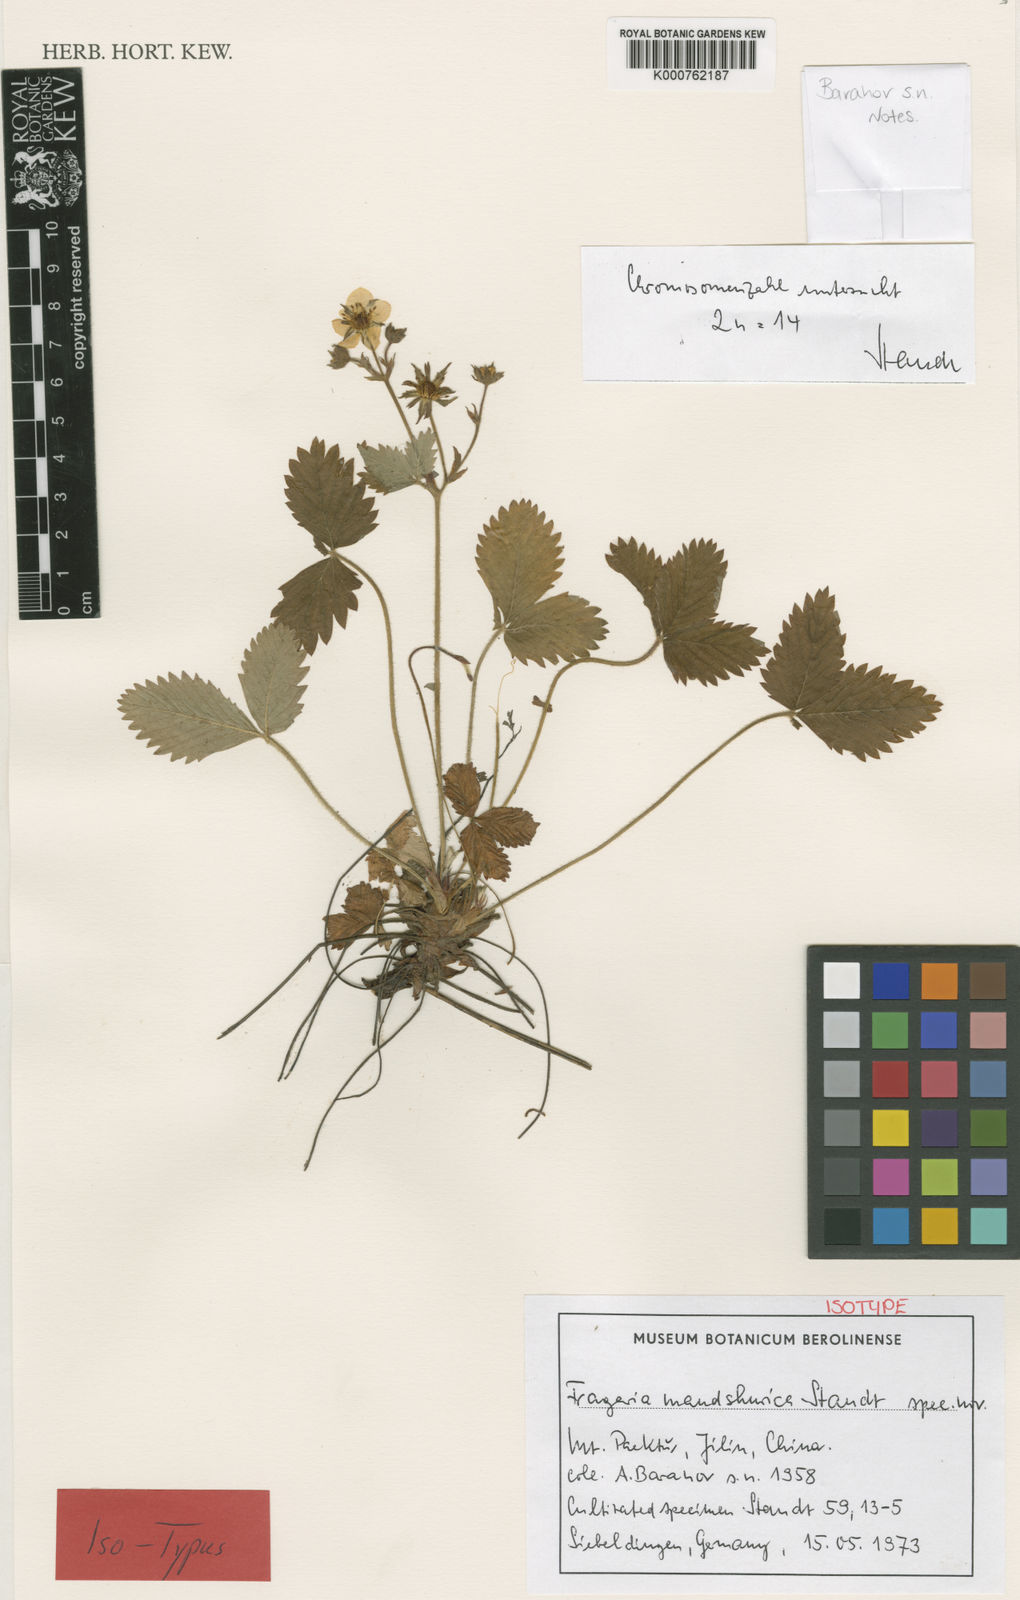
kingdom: Plantae
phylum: Tracheophyta
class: Magnoliopsida
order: Rosales
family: Rosaceae
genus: Fragaria
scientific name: Fragaria mandshurica
